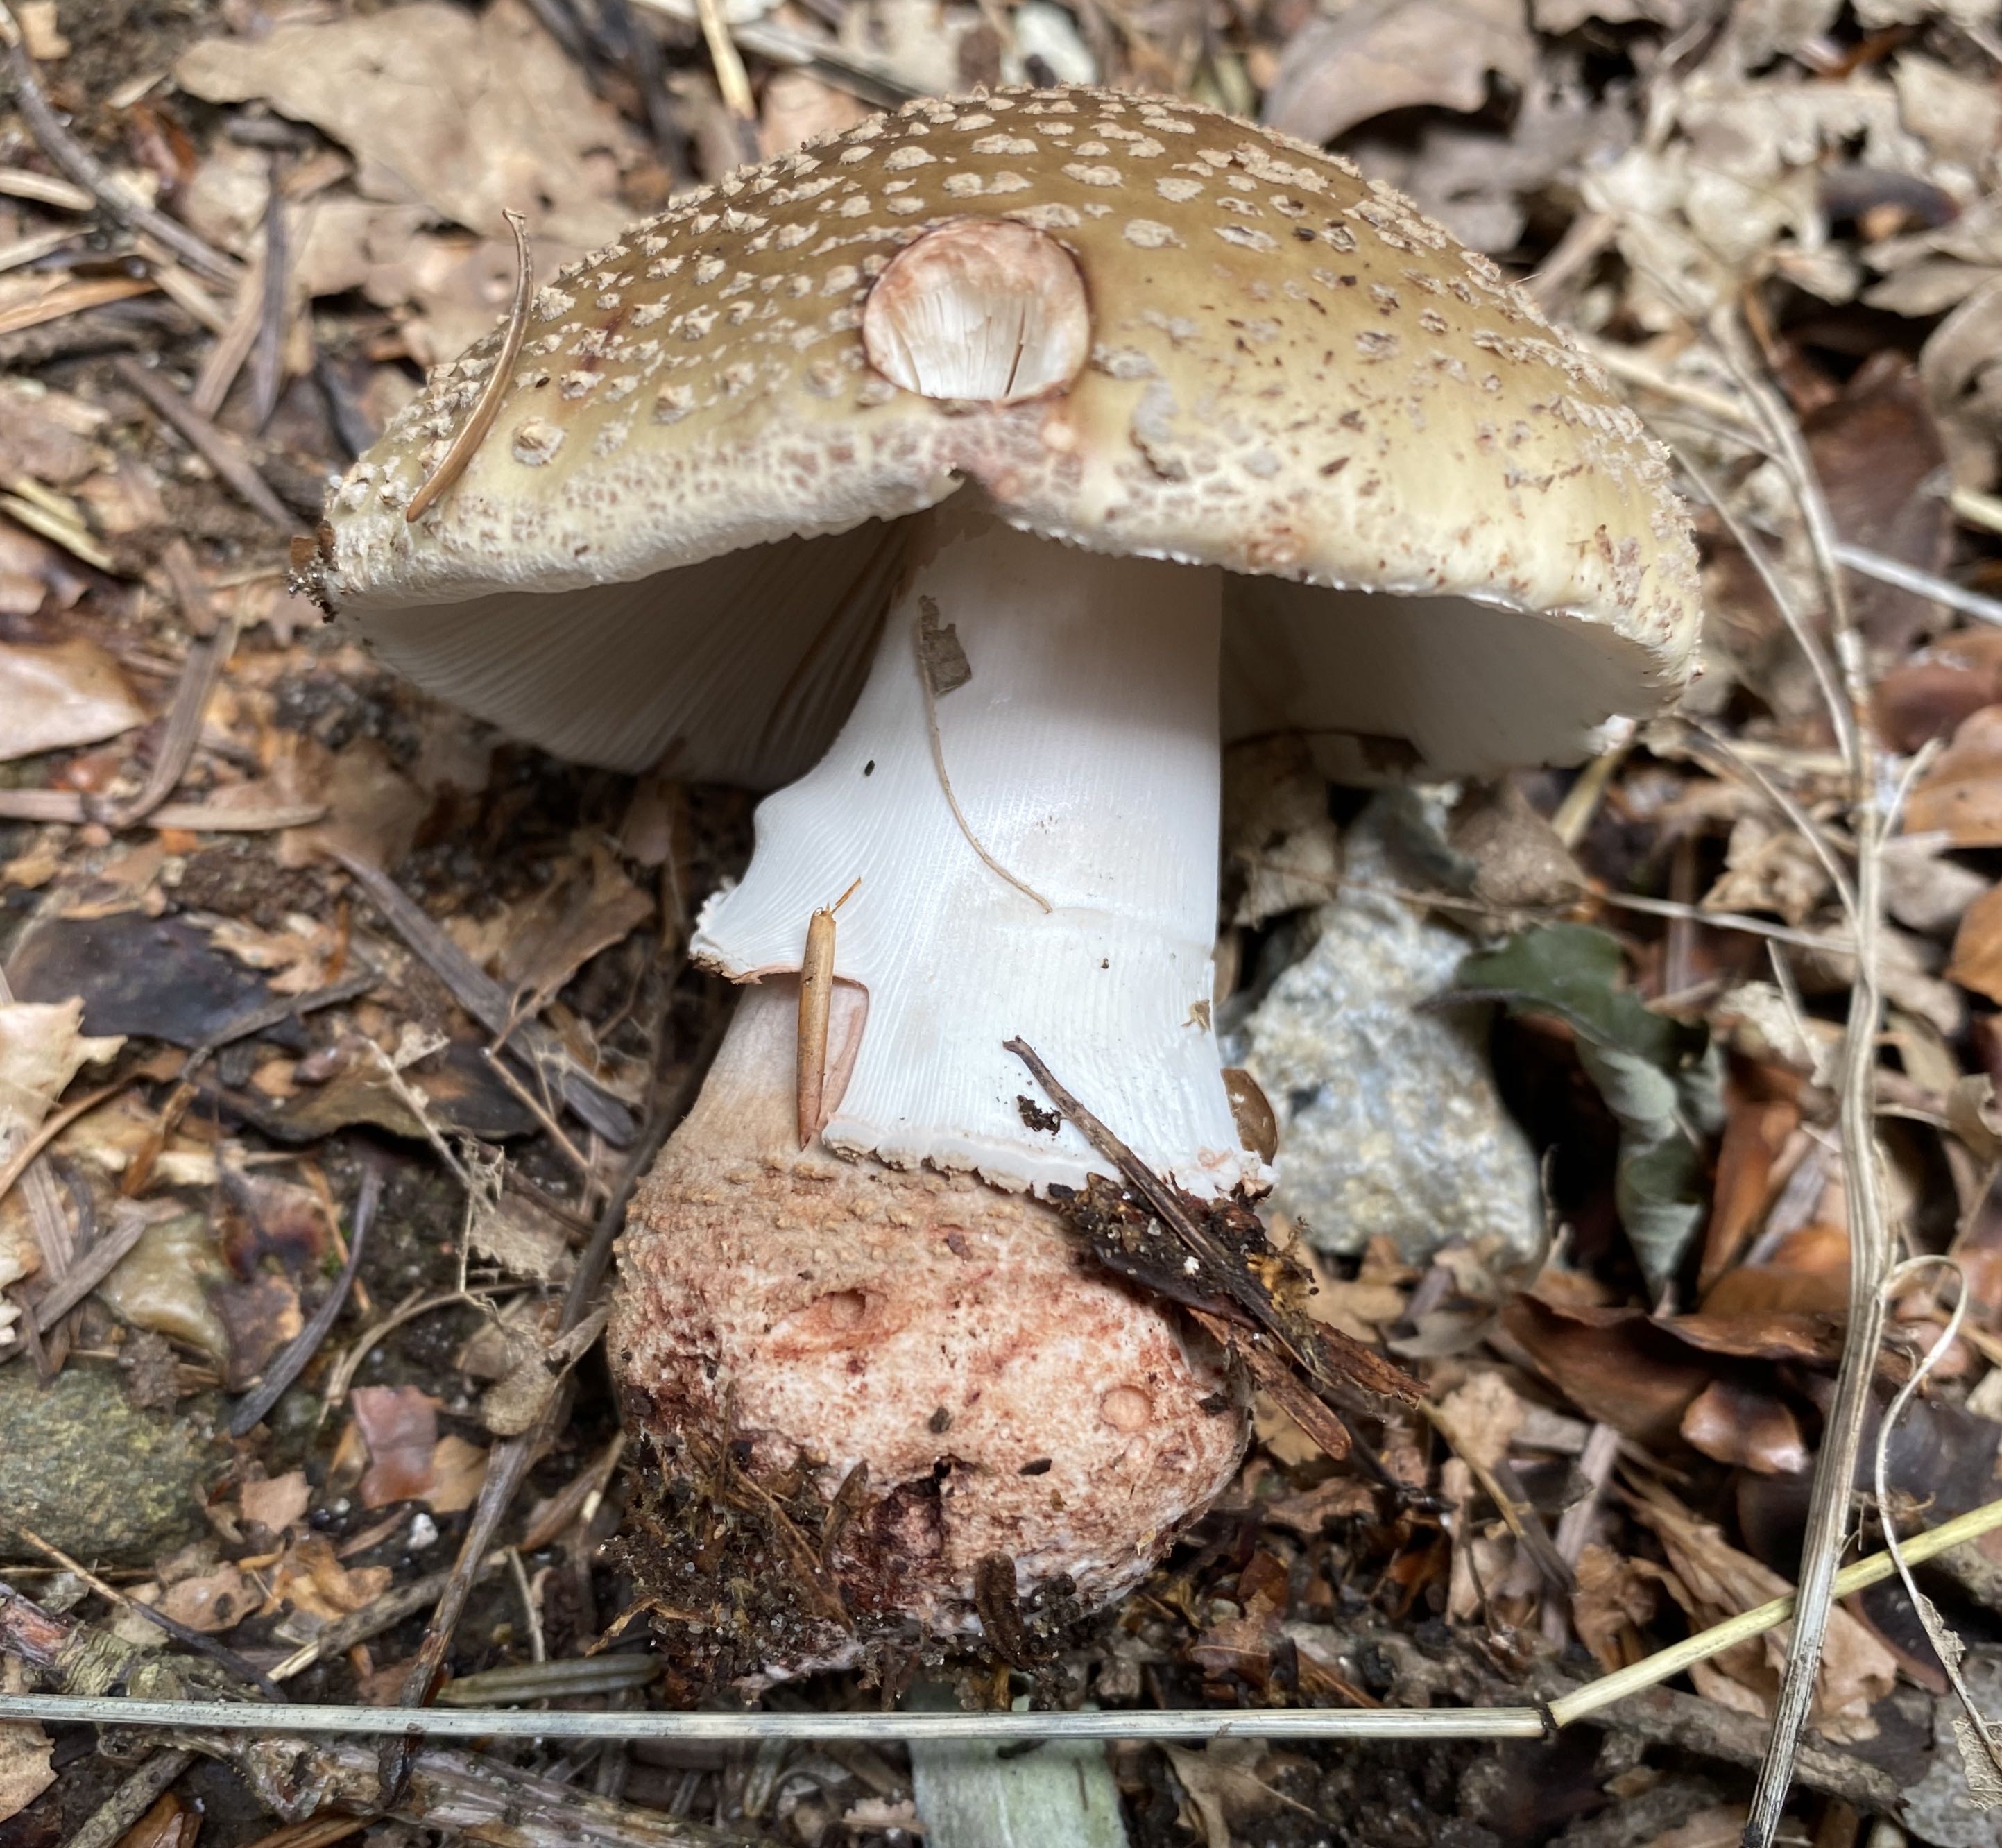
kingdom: Fungi
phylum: Basidiomycota
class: Agaricomycetes
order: Agaricales
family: Amanitaceae
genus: Amanita
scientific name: Amanita rubescens
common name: rødmende fluesvamp
